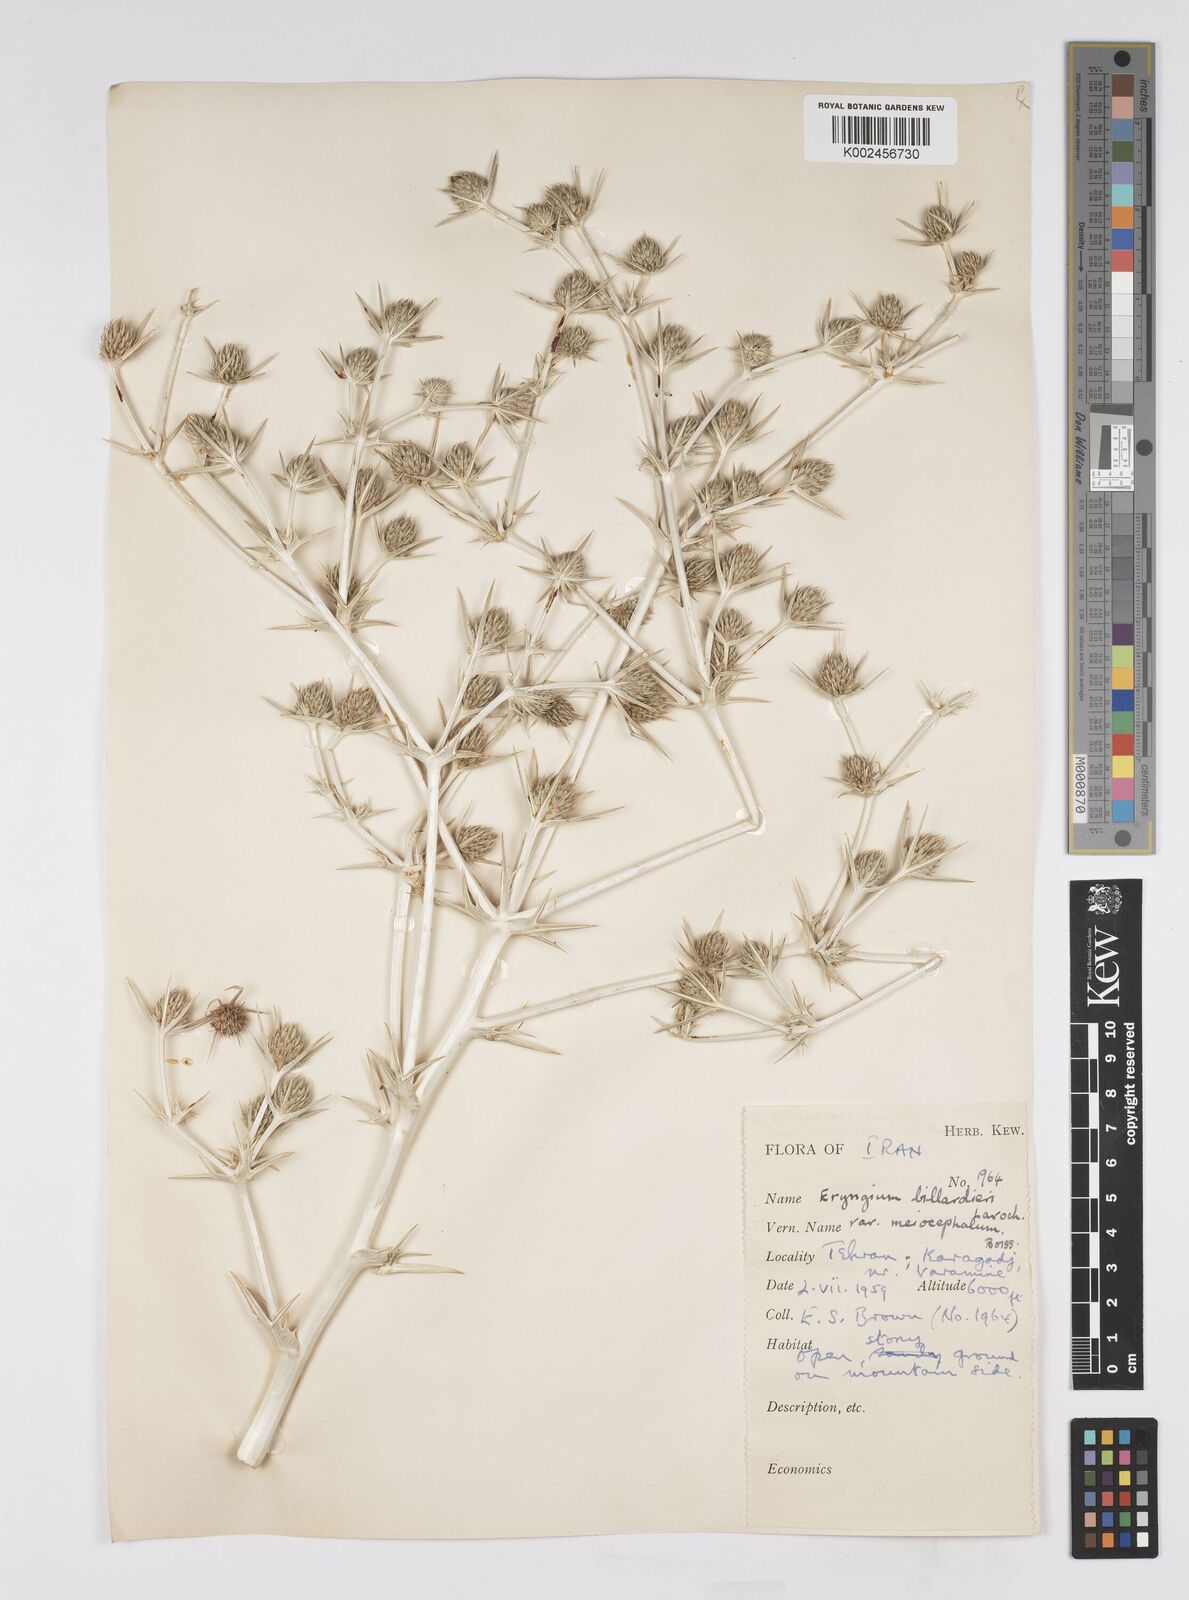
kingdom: Plantae
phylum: Tracheophyta
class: Magnoliopsida
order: Apiales
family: Apiaceae
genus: Eryngium
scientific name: Eryngium billardierei
